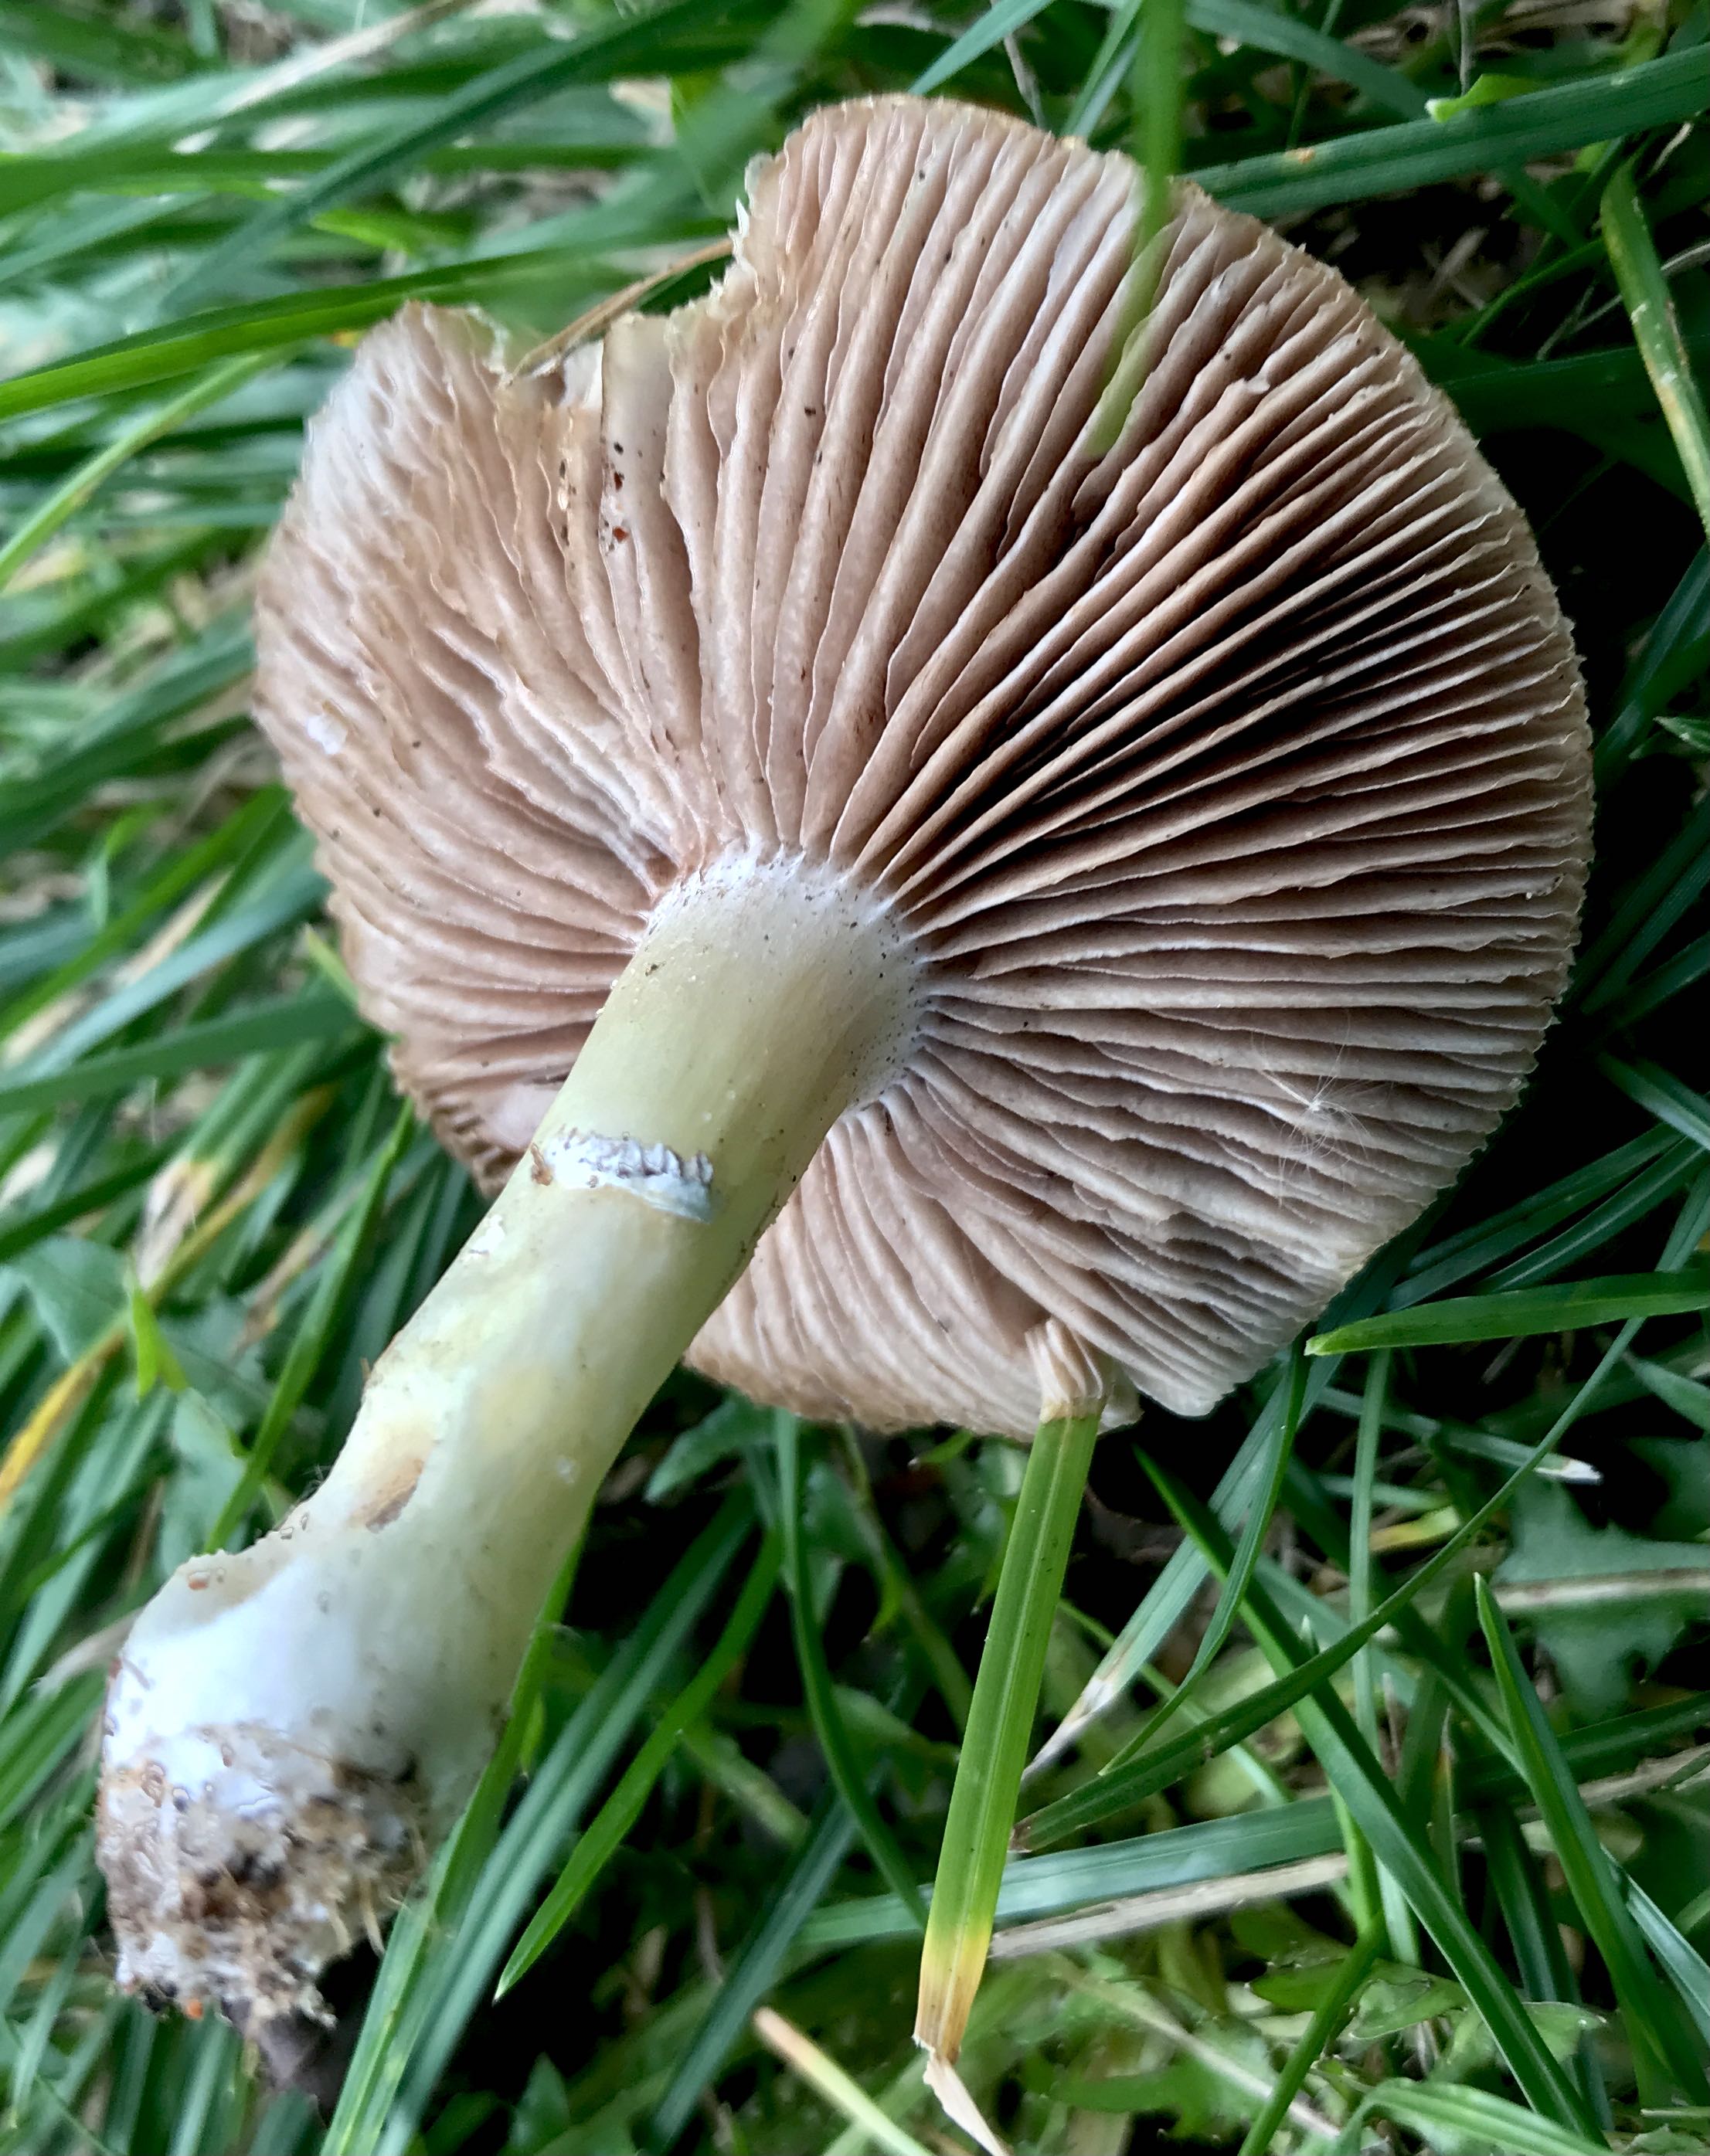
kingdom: Fungi
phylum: Basidiomycota
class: Agaricomycetes
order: Agaricales
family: Hymenogastraceae
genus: Psilocybe
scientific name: Psilocybe coronilla
